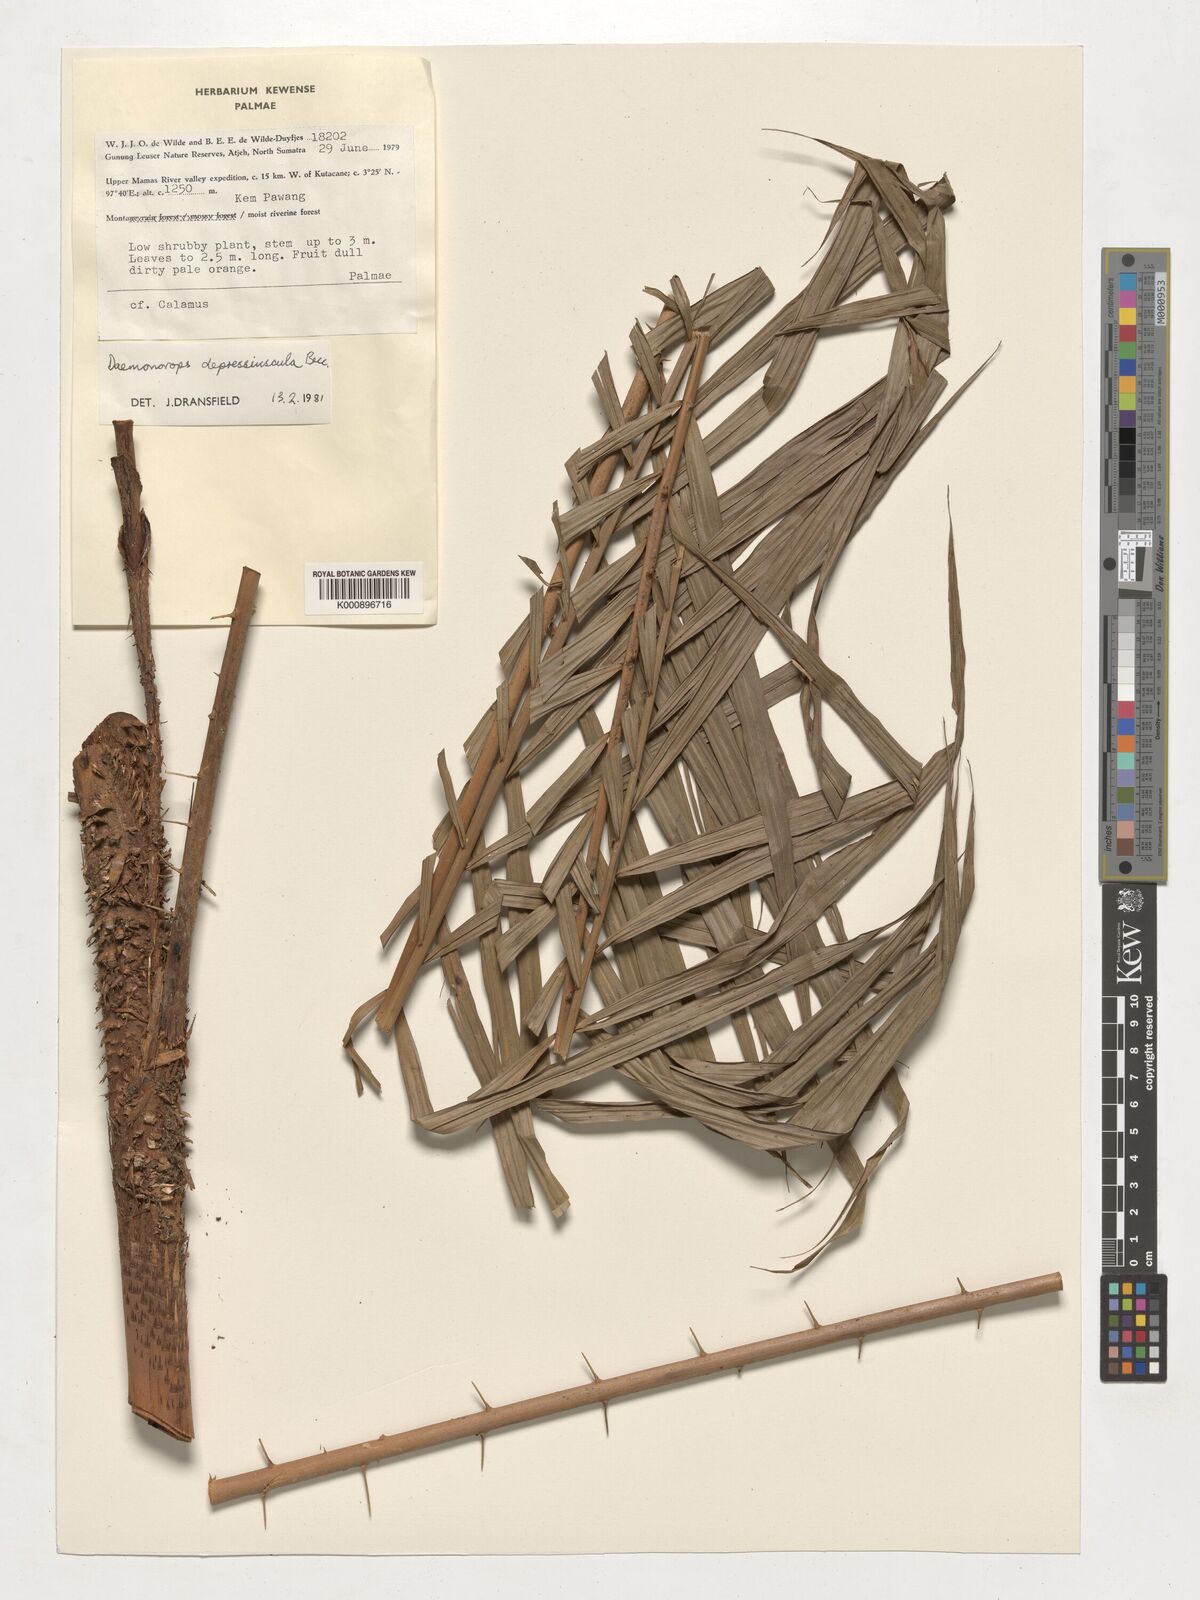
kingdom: Plantae
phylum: Tracheophyta
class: Liliopsida
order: Arecales
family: Arecaceae
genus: Daemonorops
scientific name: Daemonorops
